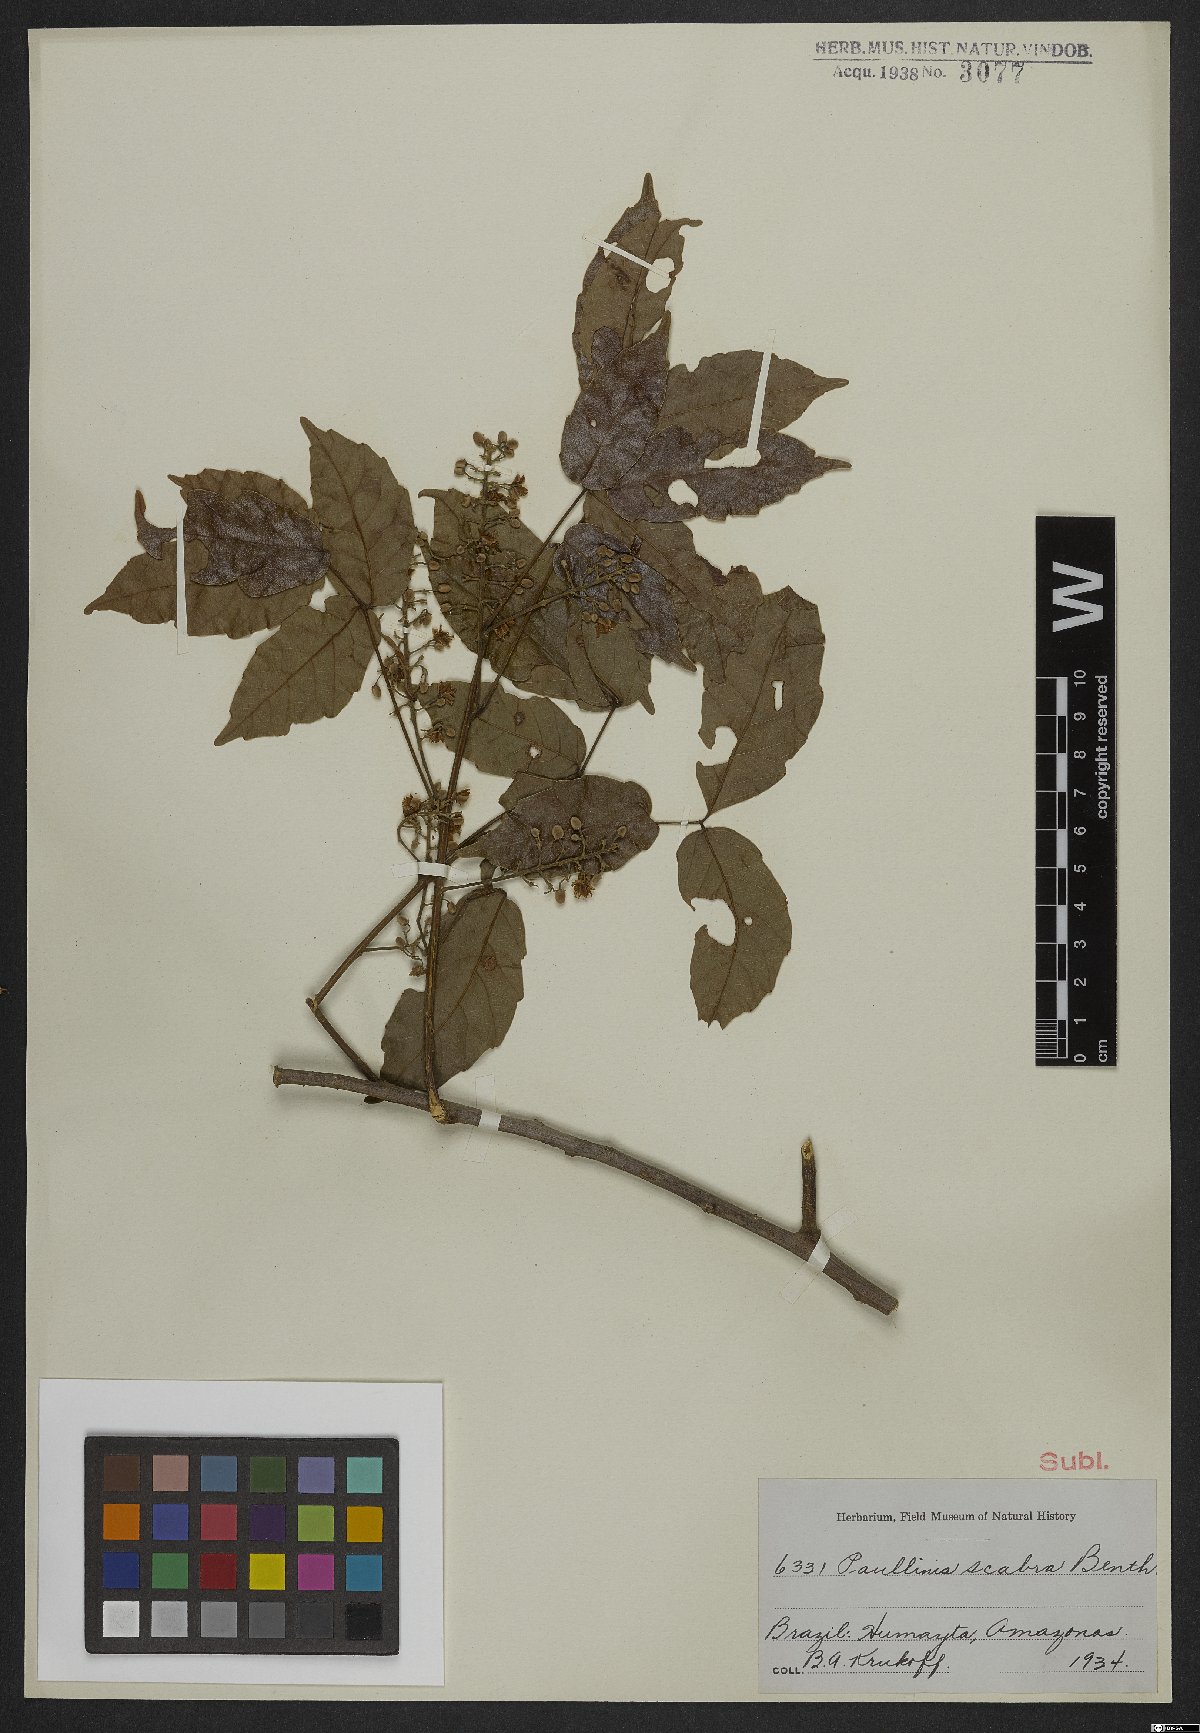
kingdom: Plantae
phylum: Tracheophyta
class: Magnoliopsida
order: Sapindales
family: Sapindaceae
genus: Paullinia
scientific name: Paullinia scabra
